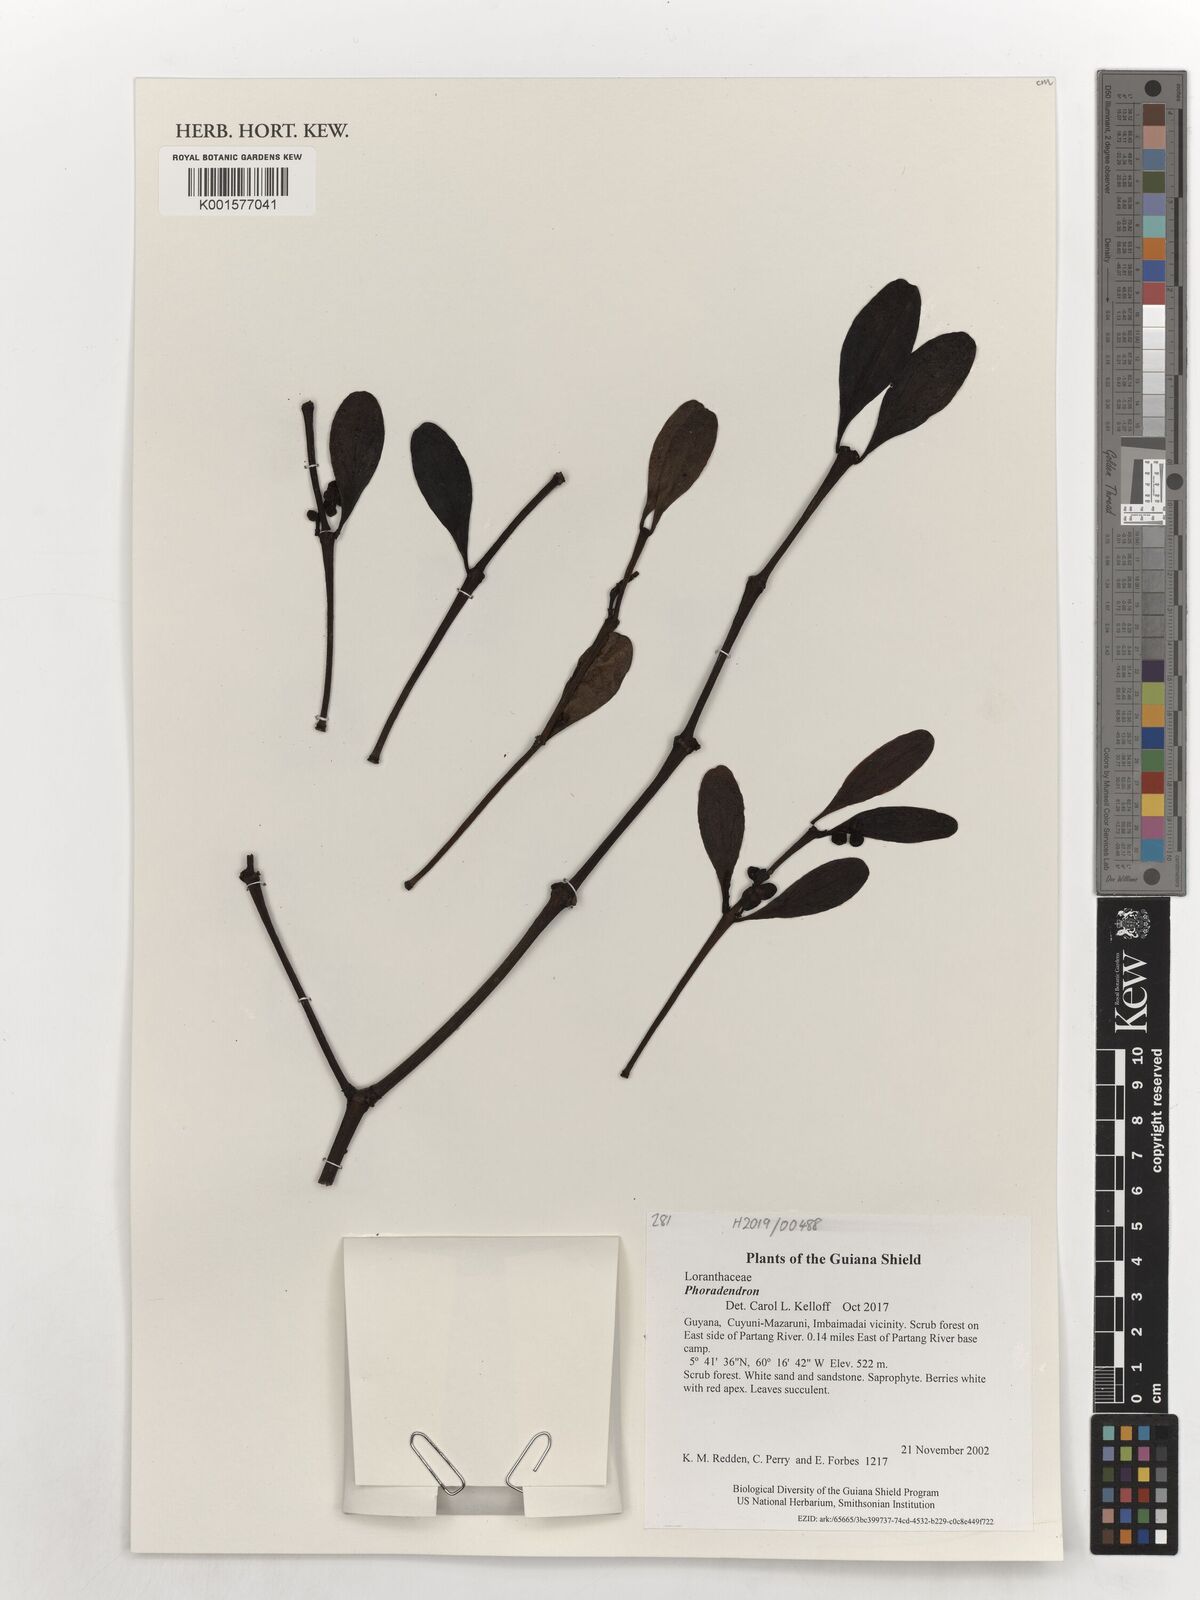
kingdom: Plantae
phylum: Tracheophyta
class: Magnoliopsida
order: Santalales
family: Viscaceae
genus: Phoradendron
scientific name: Phoradendron
